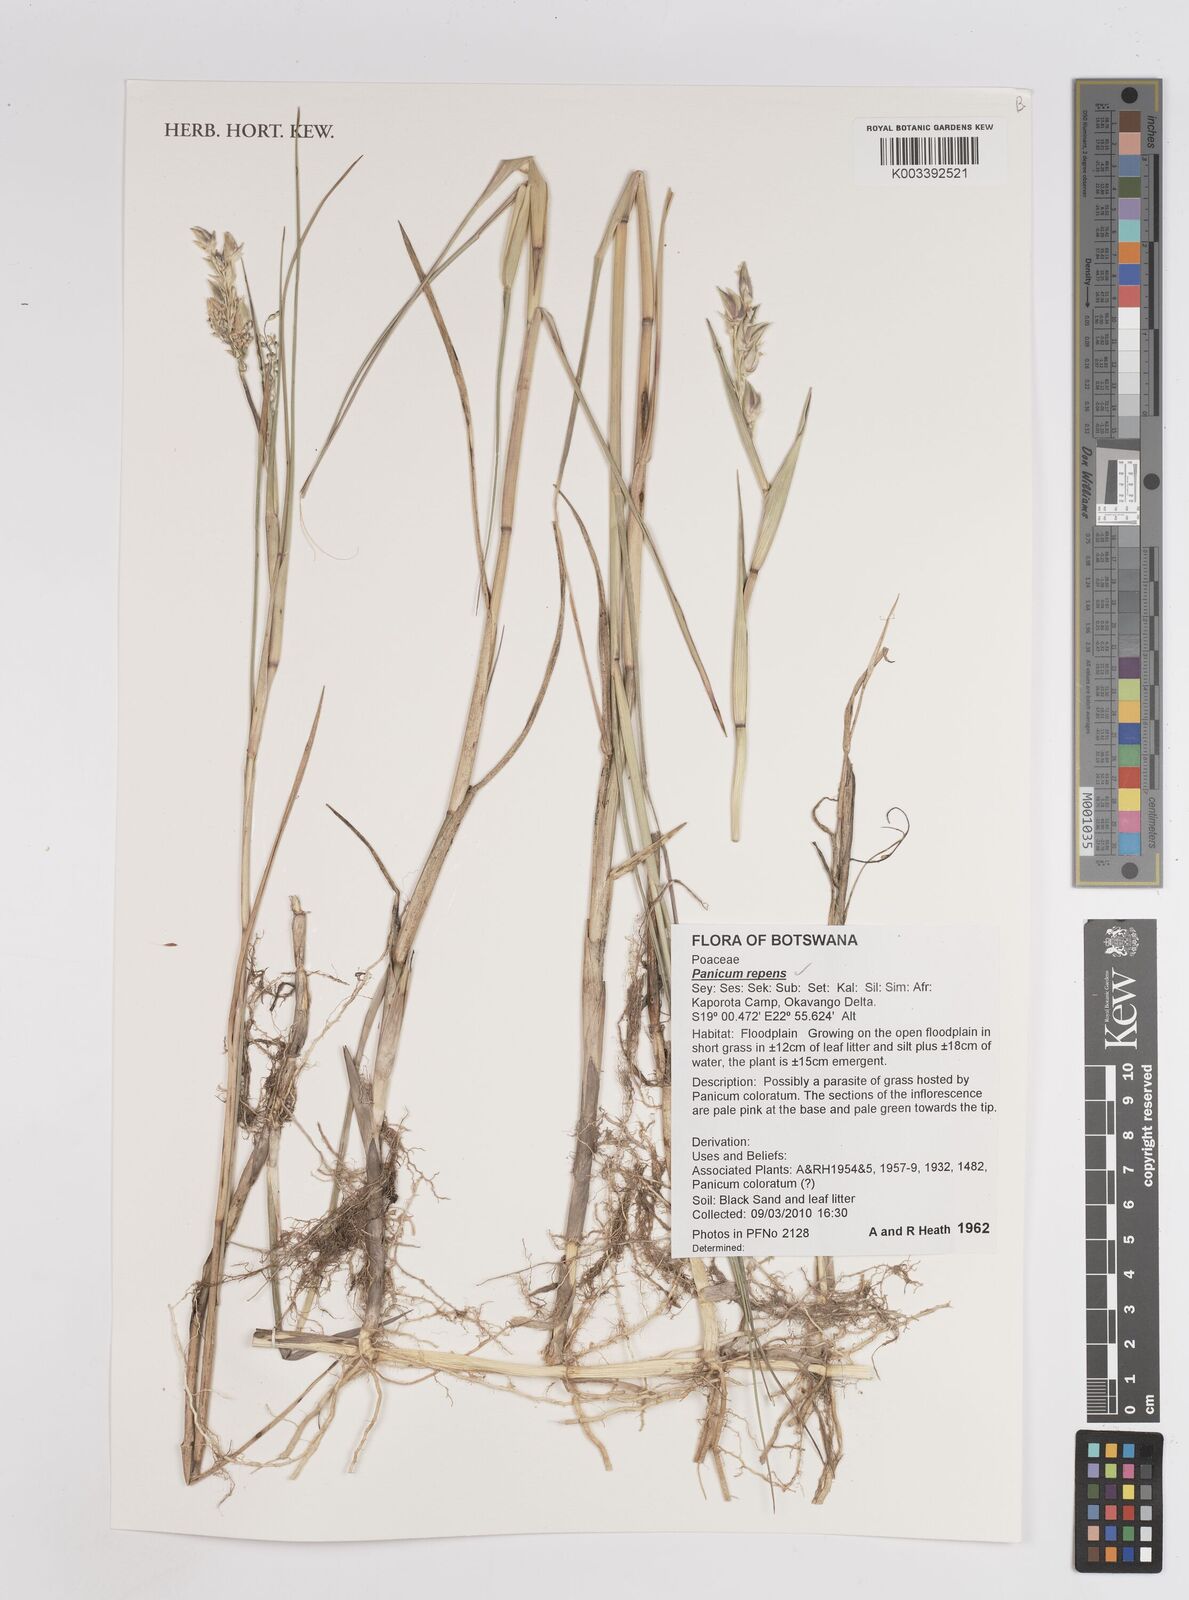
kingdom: Plantae
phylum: Tracheophyta
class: Liliopsida
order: Poales
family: Poaceae
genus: Panicum
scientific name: Panicum repens
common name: Torpedo grass
